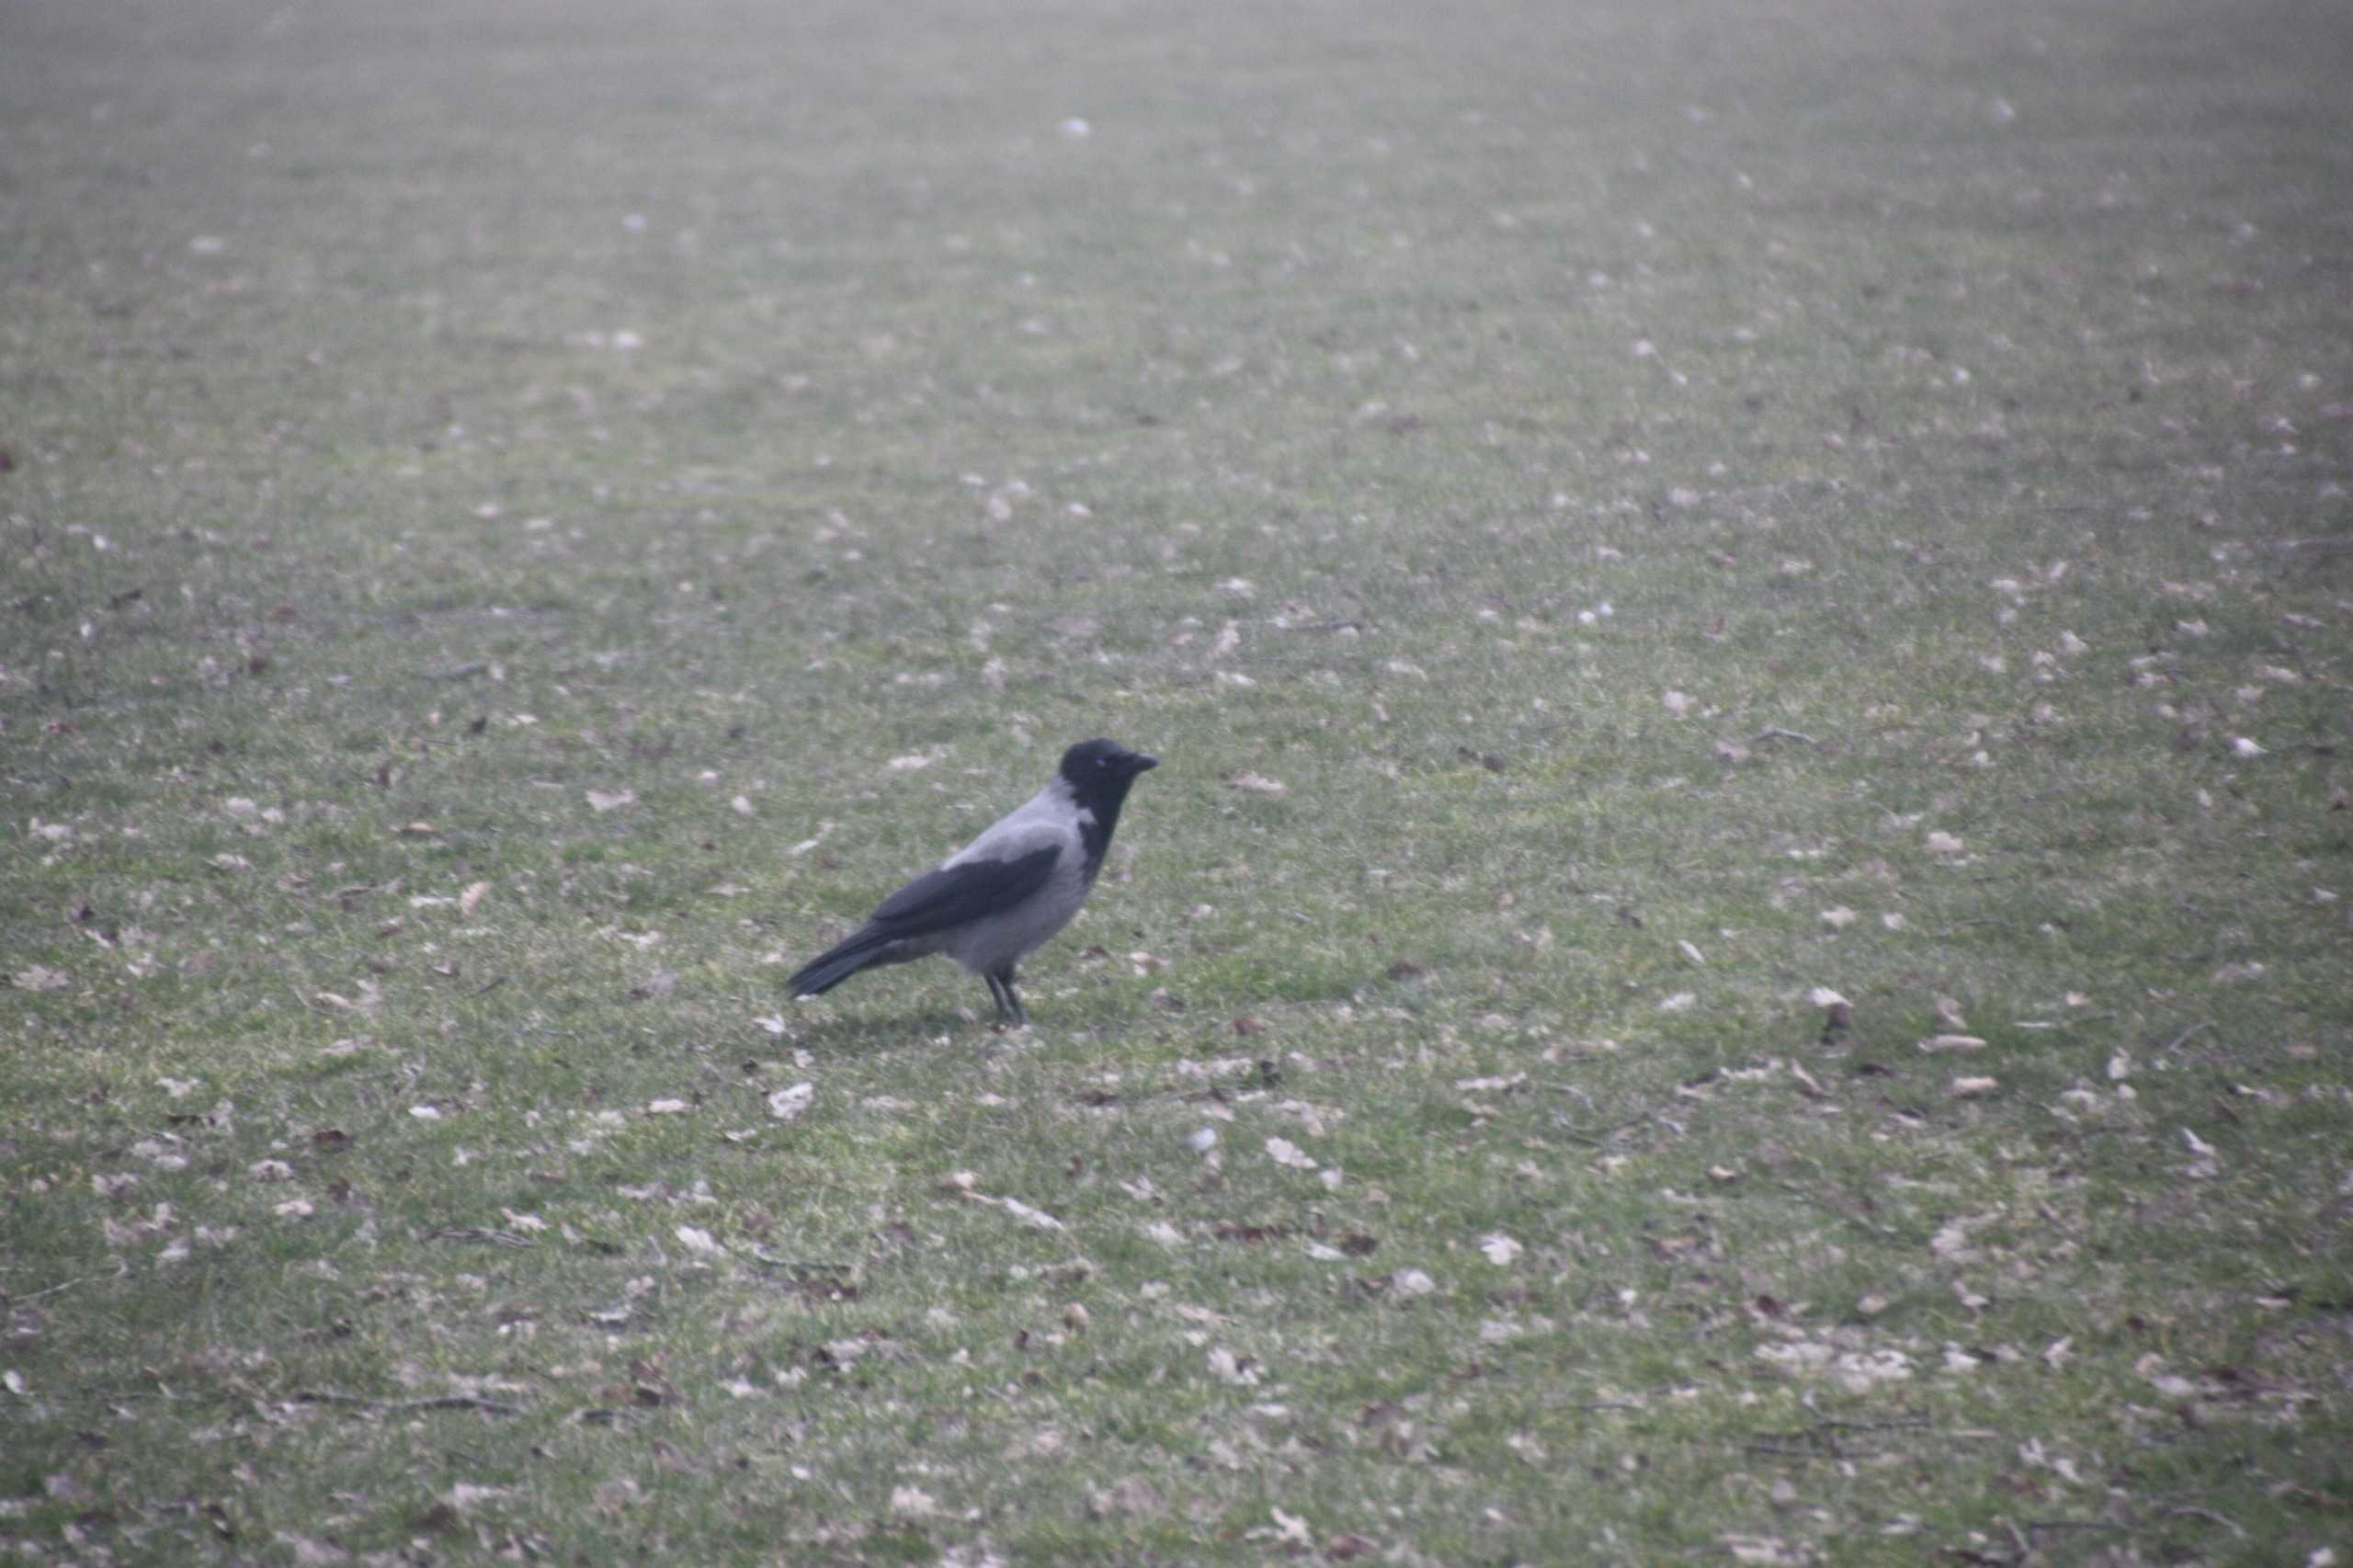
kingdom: Animalia
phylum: Chordata
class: Aves
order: Passeriformes
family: Corvidae
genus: Corvus
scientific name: Corvus cornix
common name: Gråkrage
